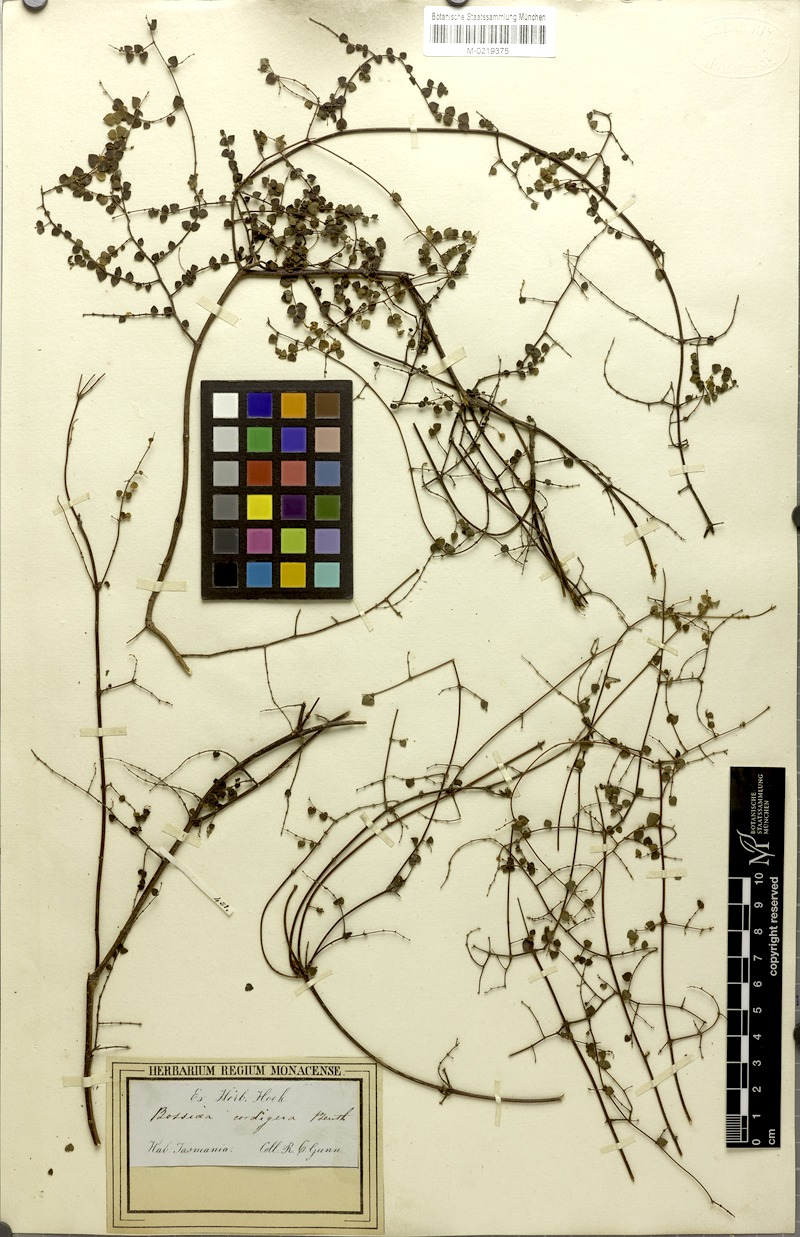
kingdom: Plantae
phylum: Tracheophyta
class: Magnoliopsida
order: Fabales
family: Fabaceae
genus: Bossiaea
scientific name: Bossiaea hendersonii
